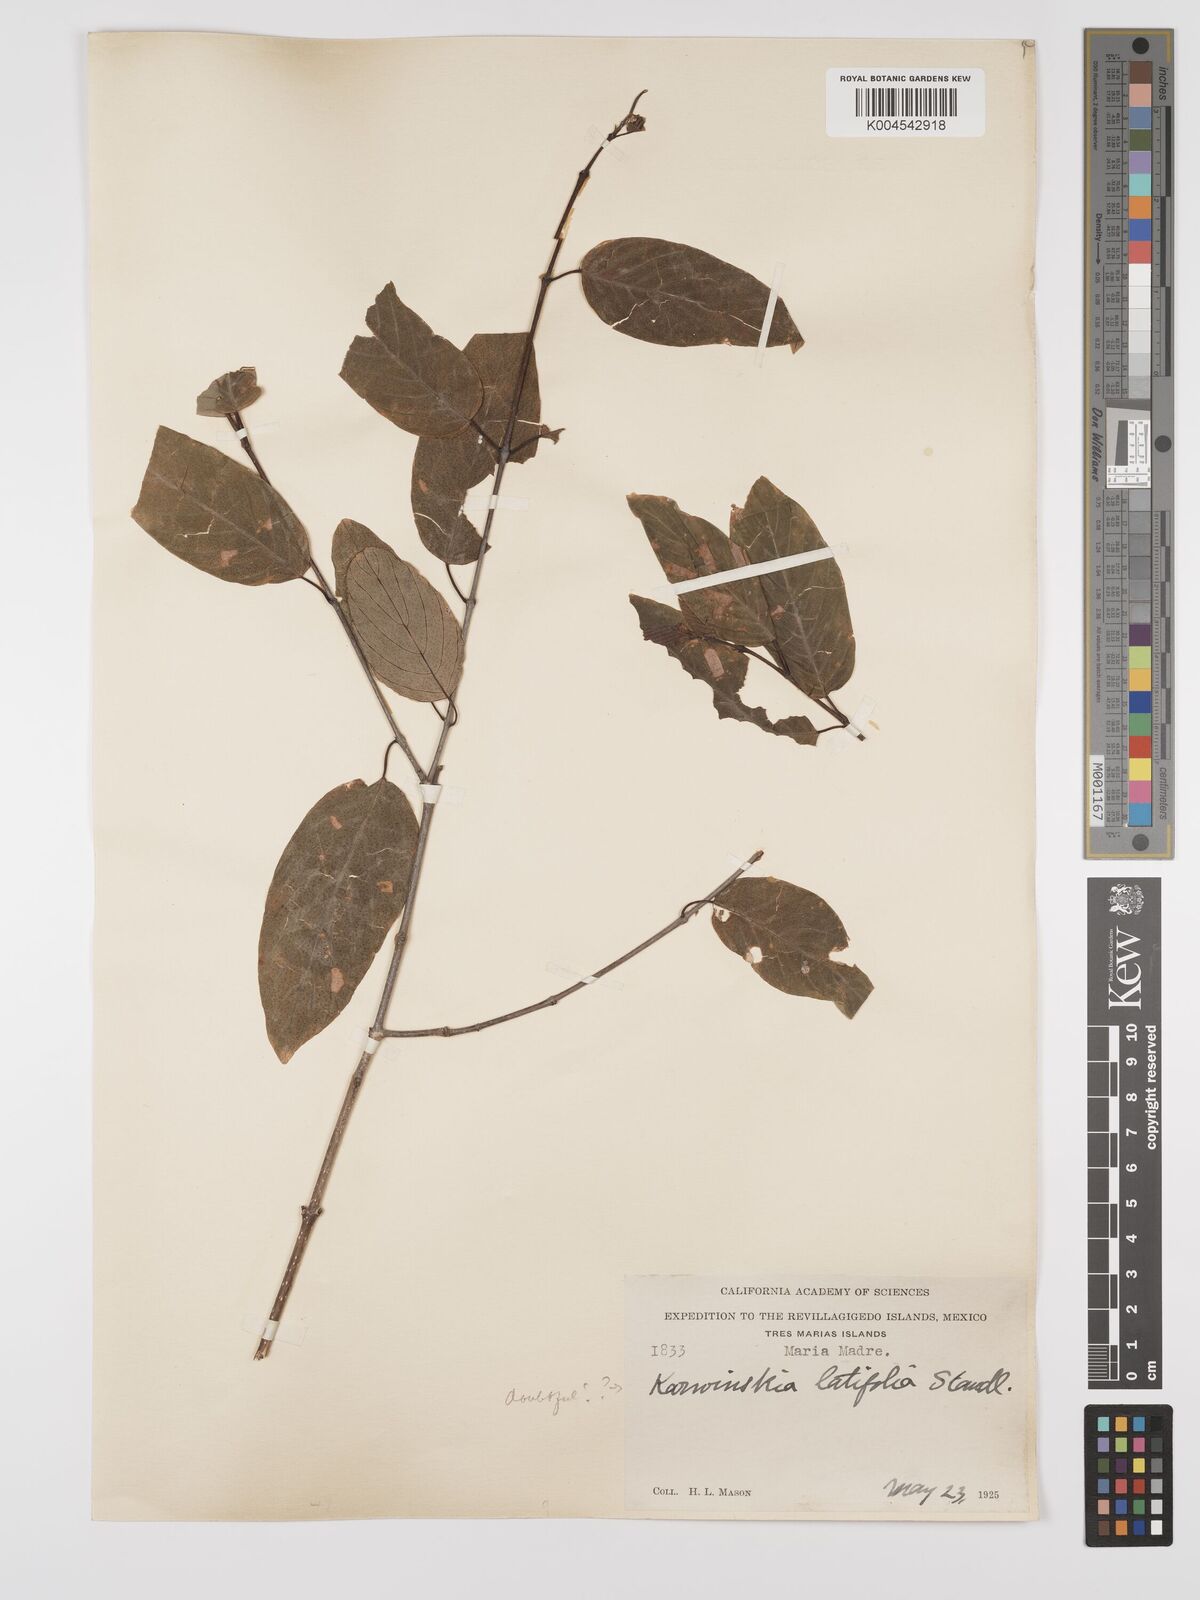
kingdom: Plantae
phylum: Tracheophyta
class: Magnoliopsida
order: Rosales
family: Rhamnaceae
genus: Karwinskia
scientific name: Karwinskia latifolia
